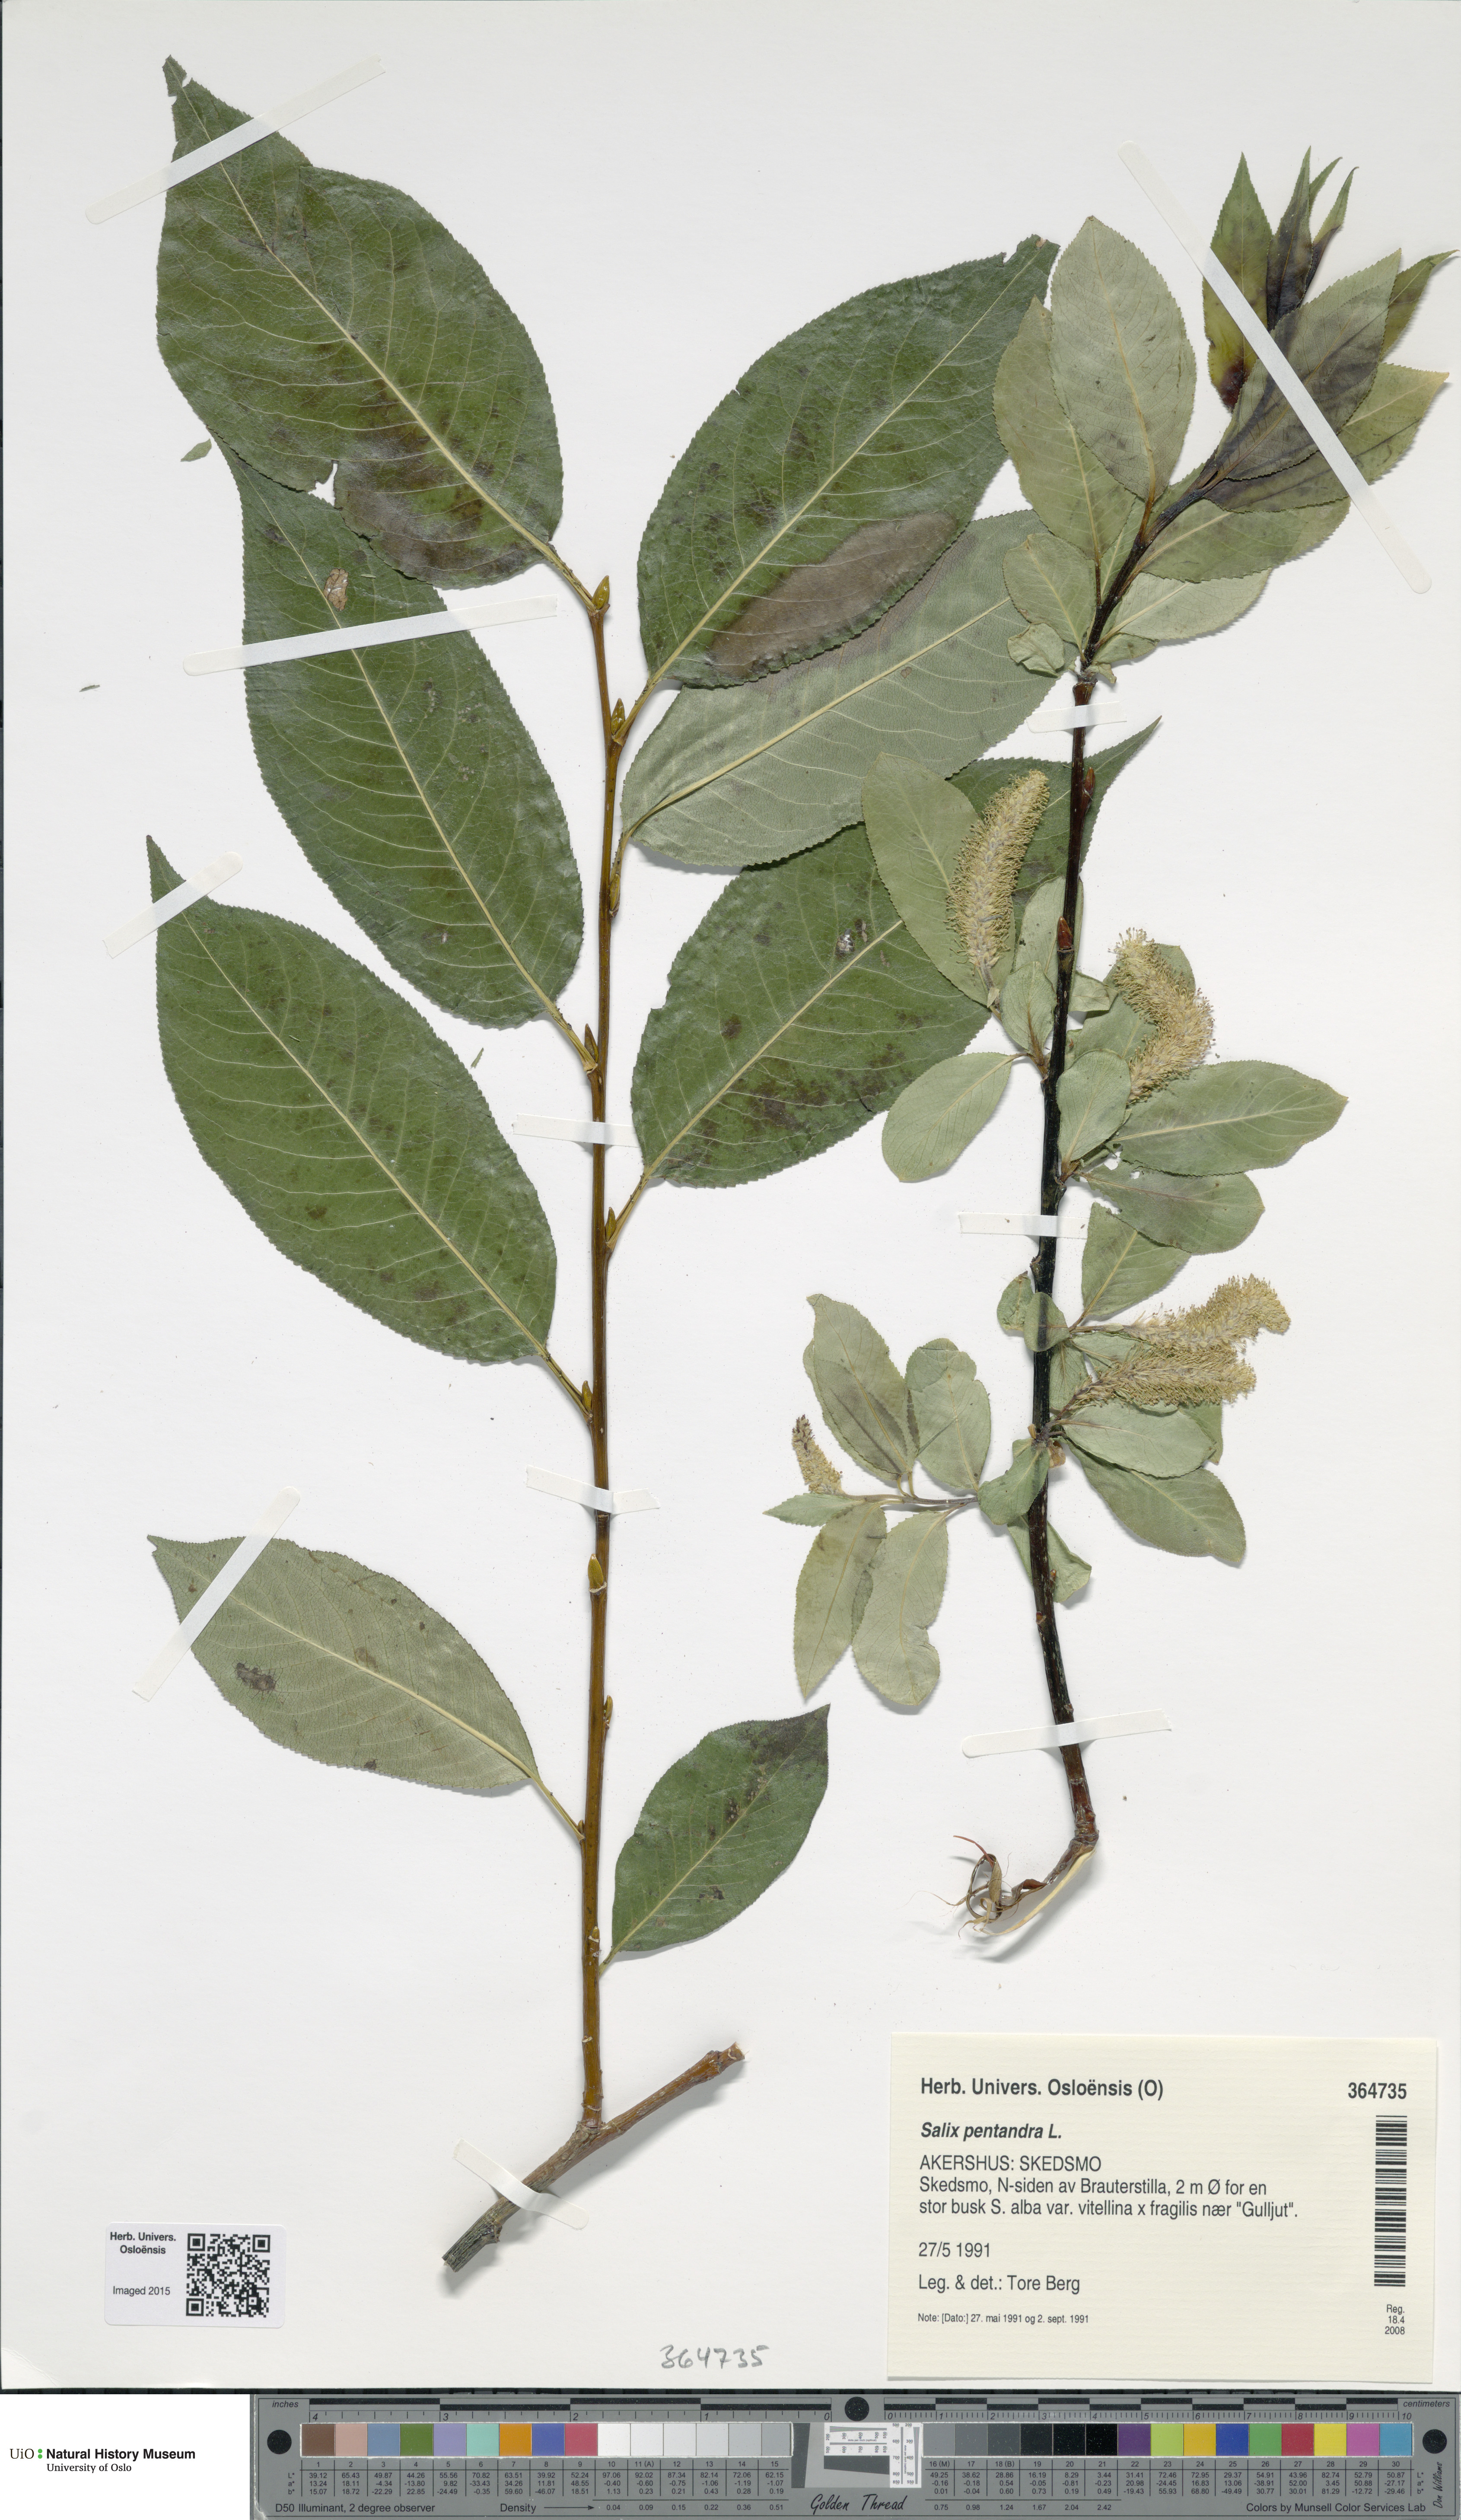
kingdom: Plantae
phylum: Tracheophyta
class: Magnoliopsida
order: Malpighiales
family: Salicaceae
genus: Salix
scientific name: Salix pentandra
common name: Bay willow
